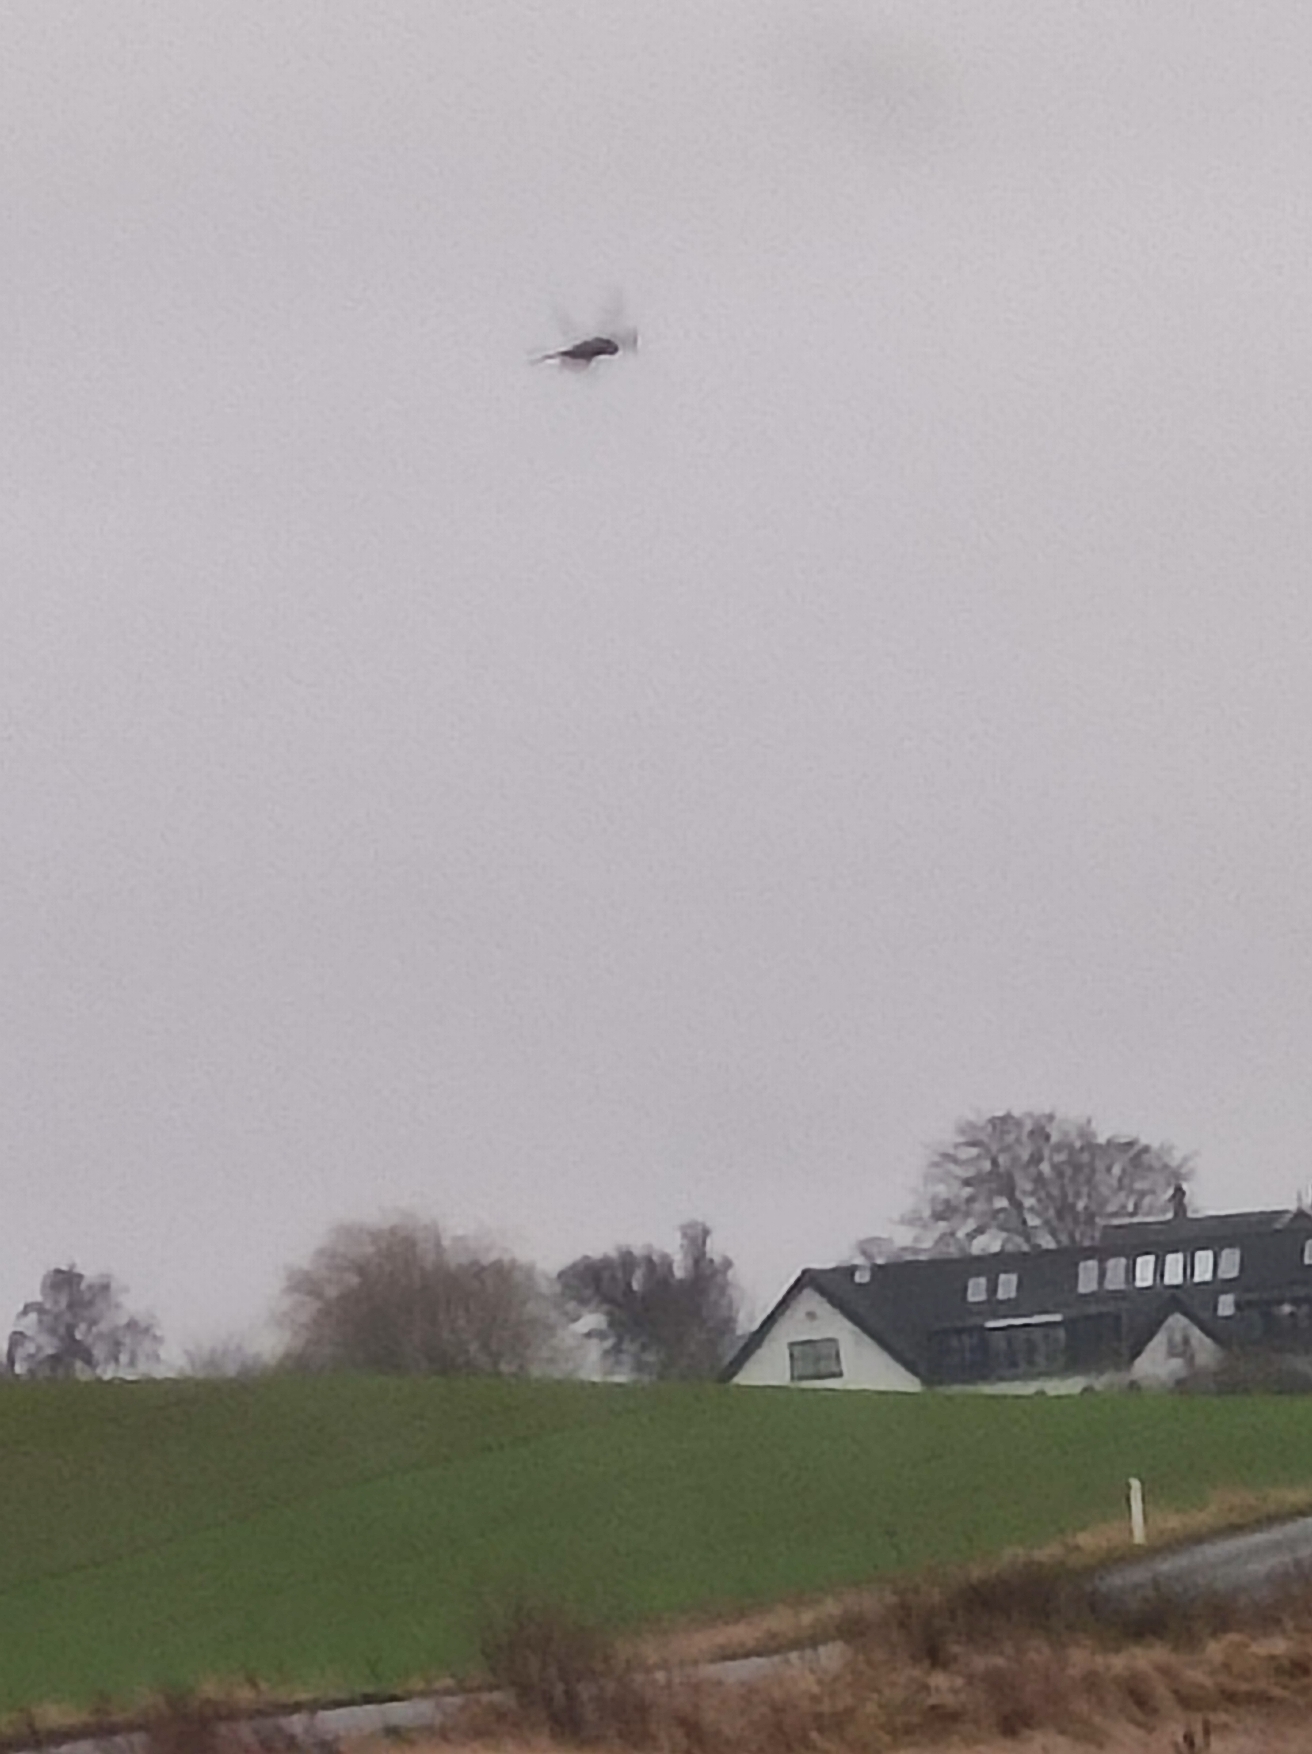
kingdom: Animalia
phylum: Chordata
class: Aves
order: Falconiformes
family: Falconidae
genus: Falco
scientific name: Falco tinnunculus
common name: Tårnfalk
